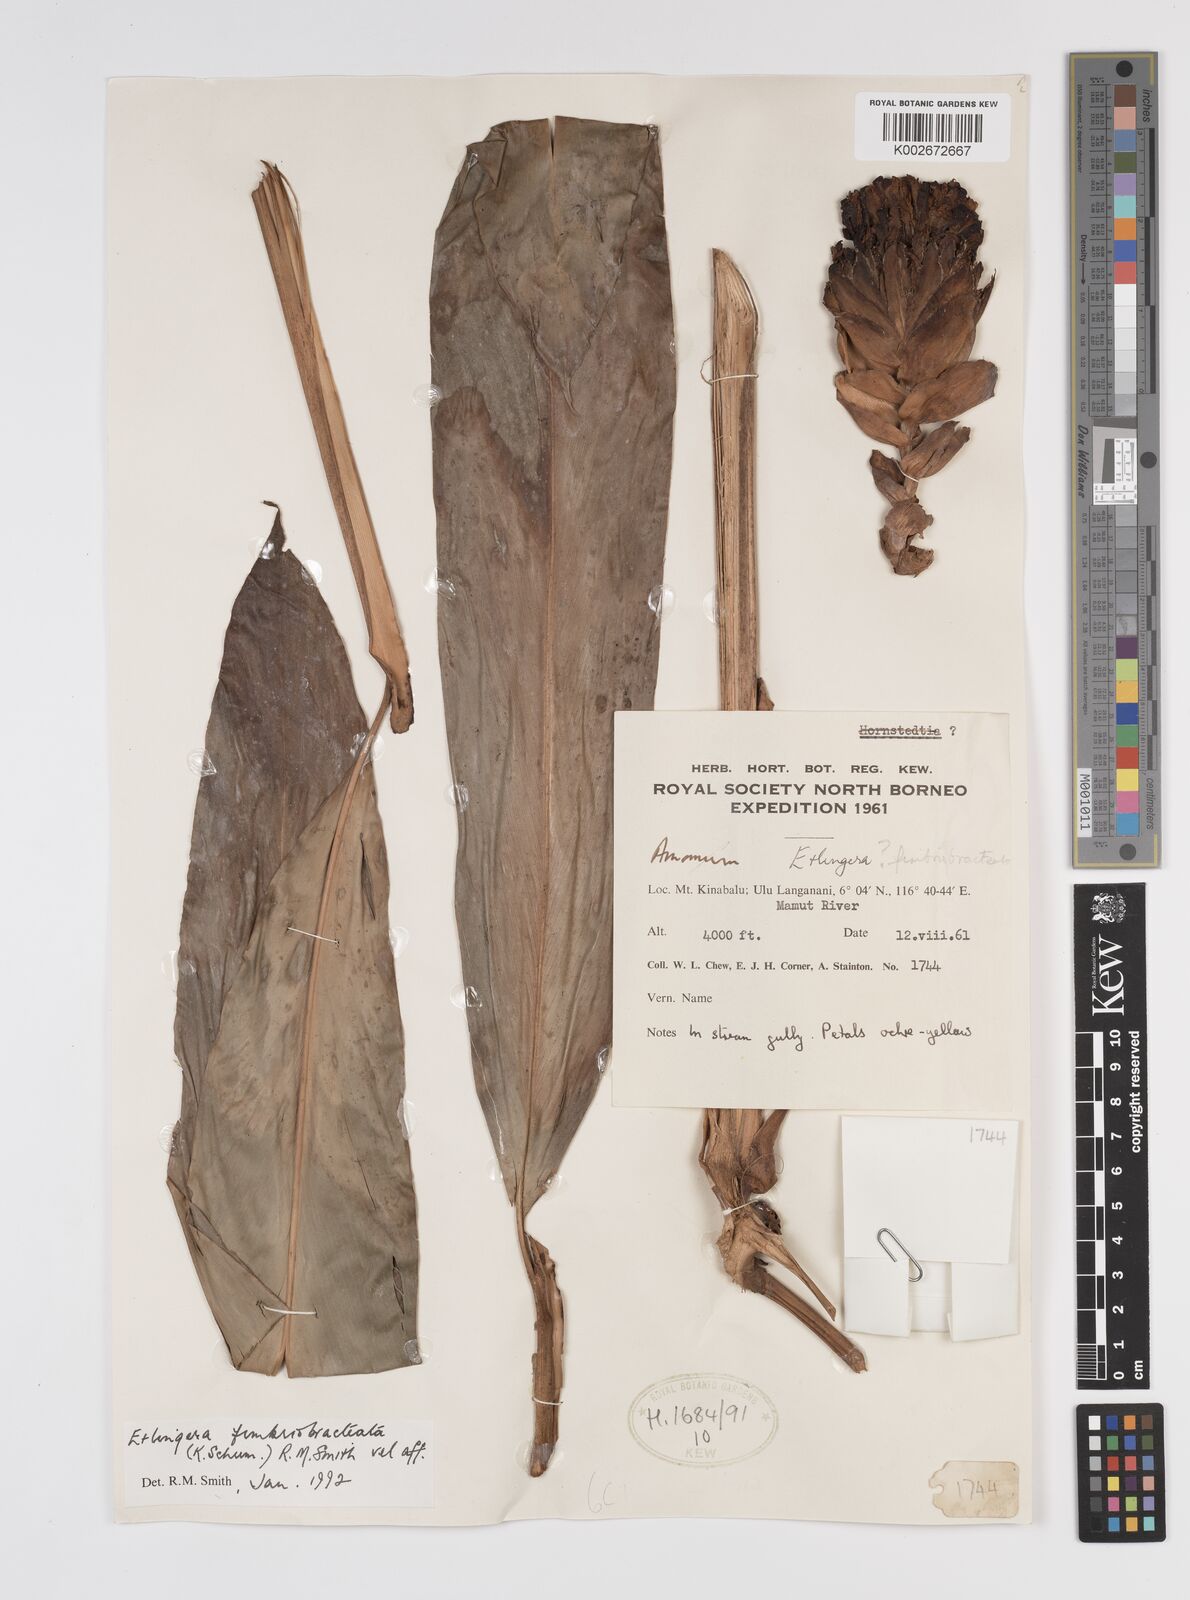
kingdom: Plantae
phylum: Tracheophyta
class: Liliopsida
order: Zingiberales
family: Zingiberaceae
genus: Etlingera
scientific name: Etlingera fimbriobracteata
